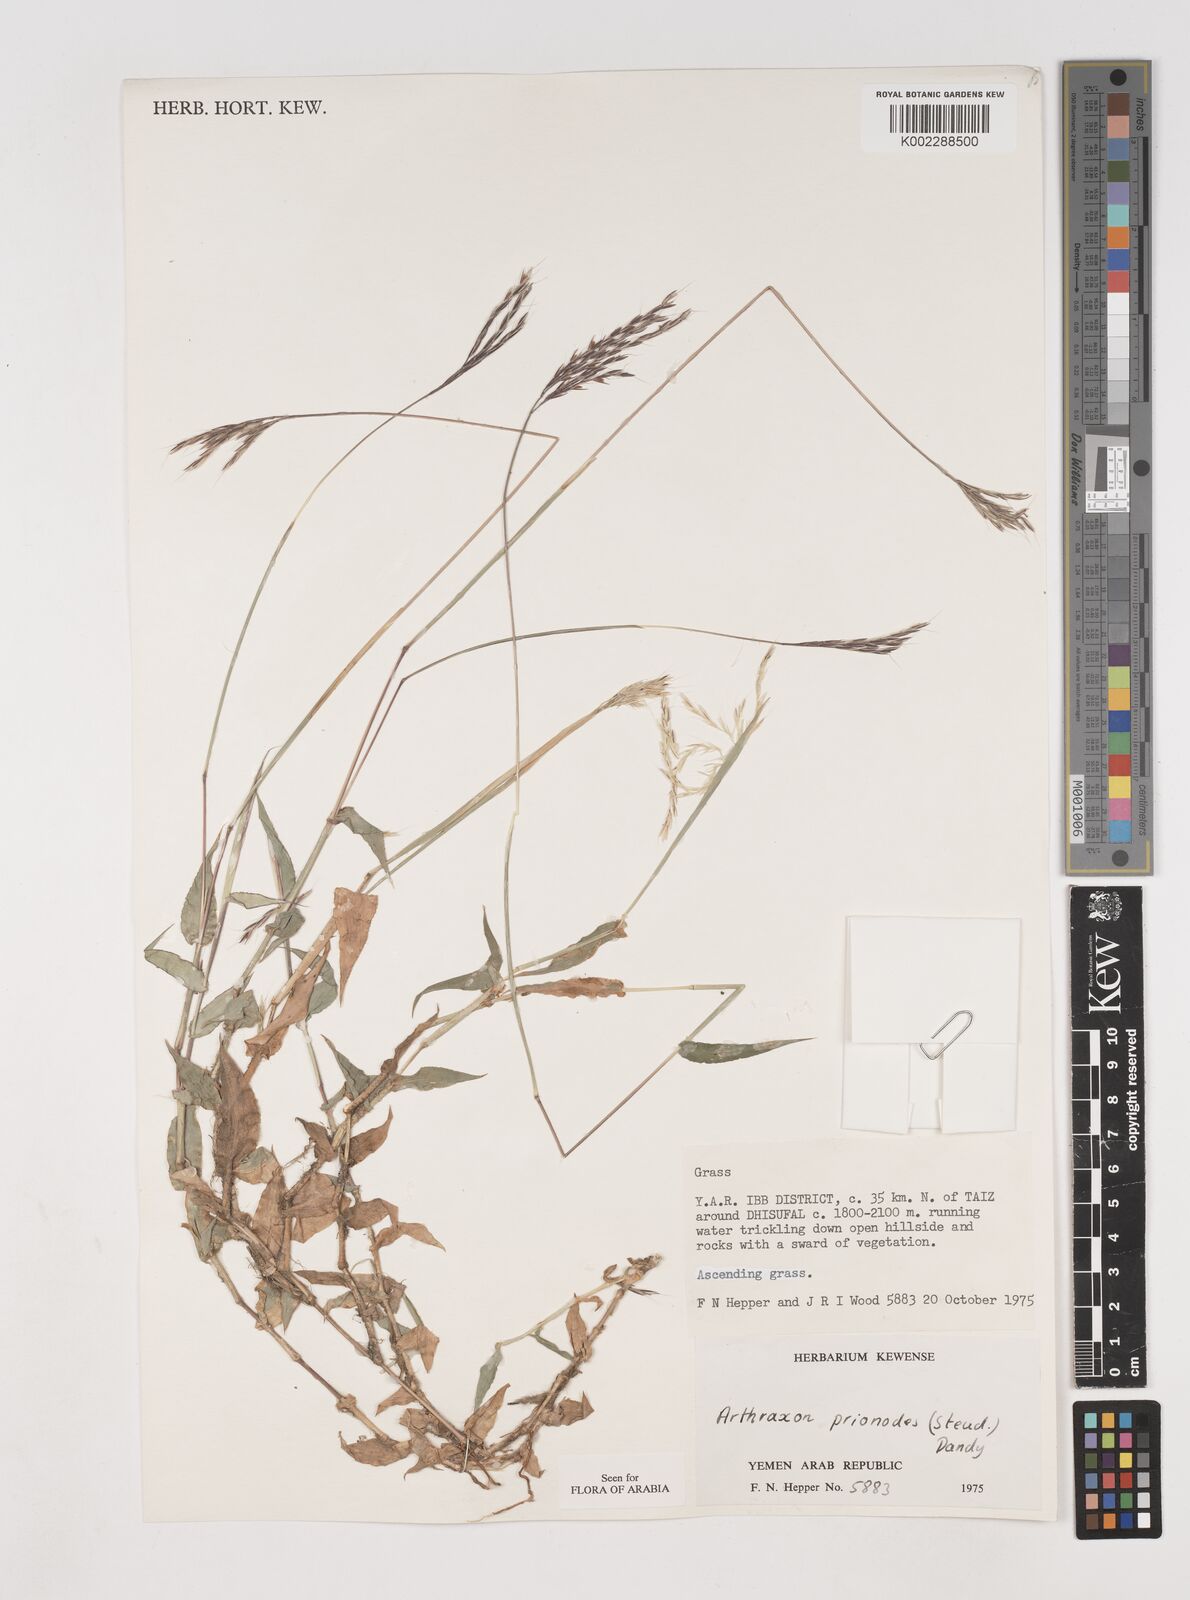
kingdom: Plantae
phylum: Tracheophyta
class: Liliopsida
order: Poales
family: Poaceae
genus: Arthraxon
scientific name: Arthraxon prionodes
